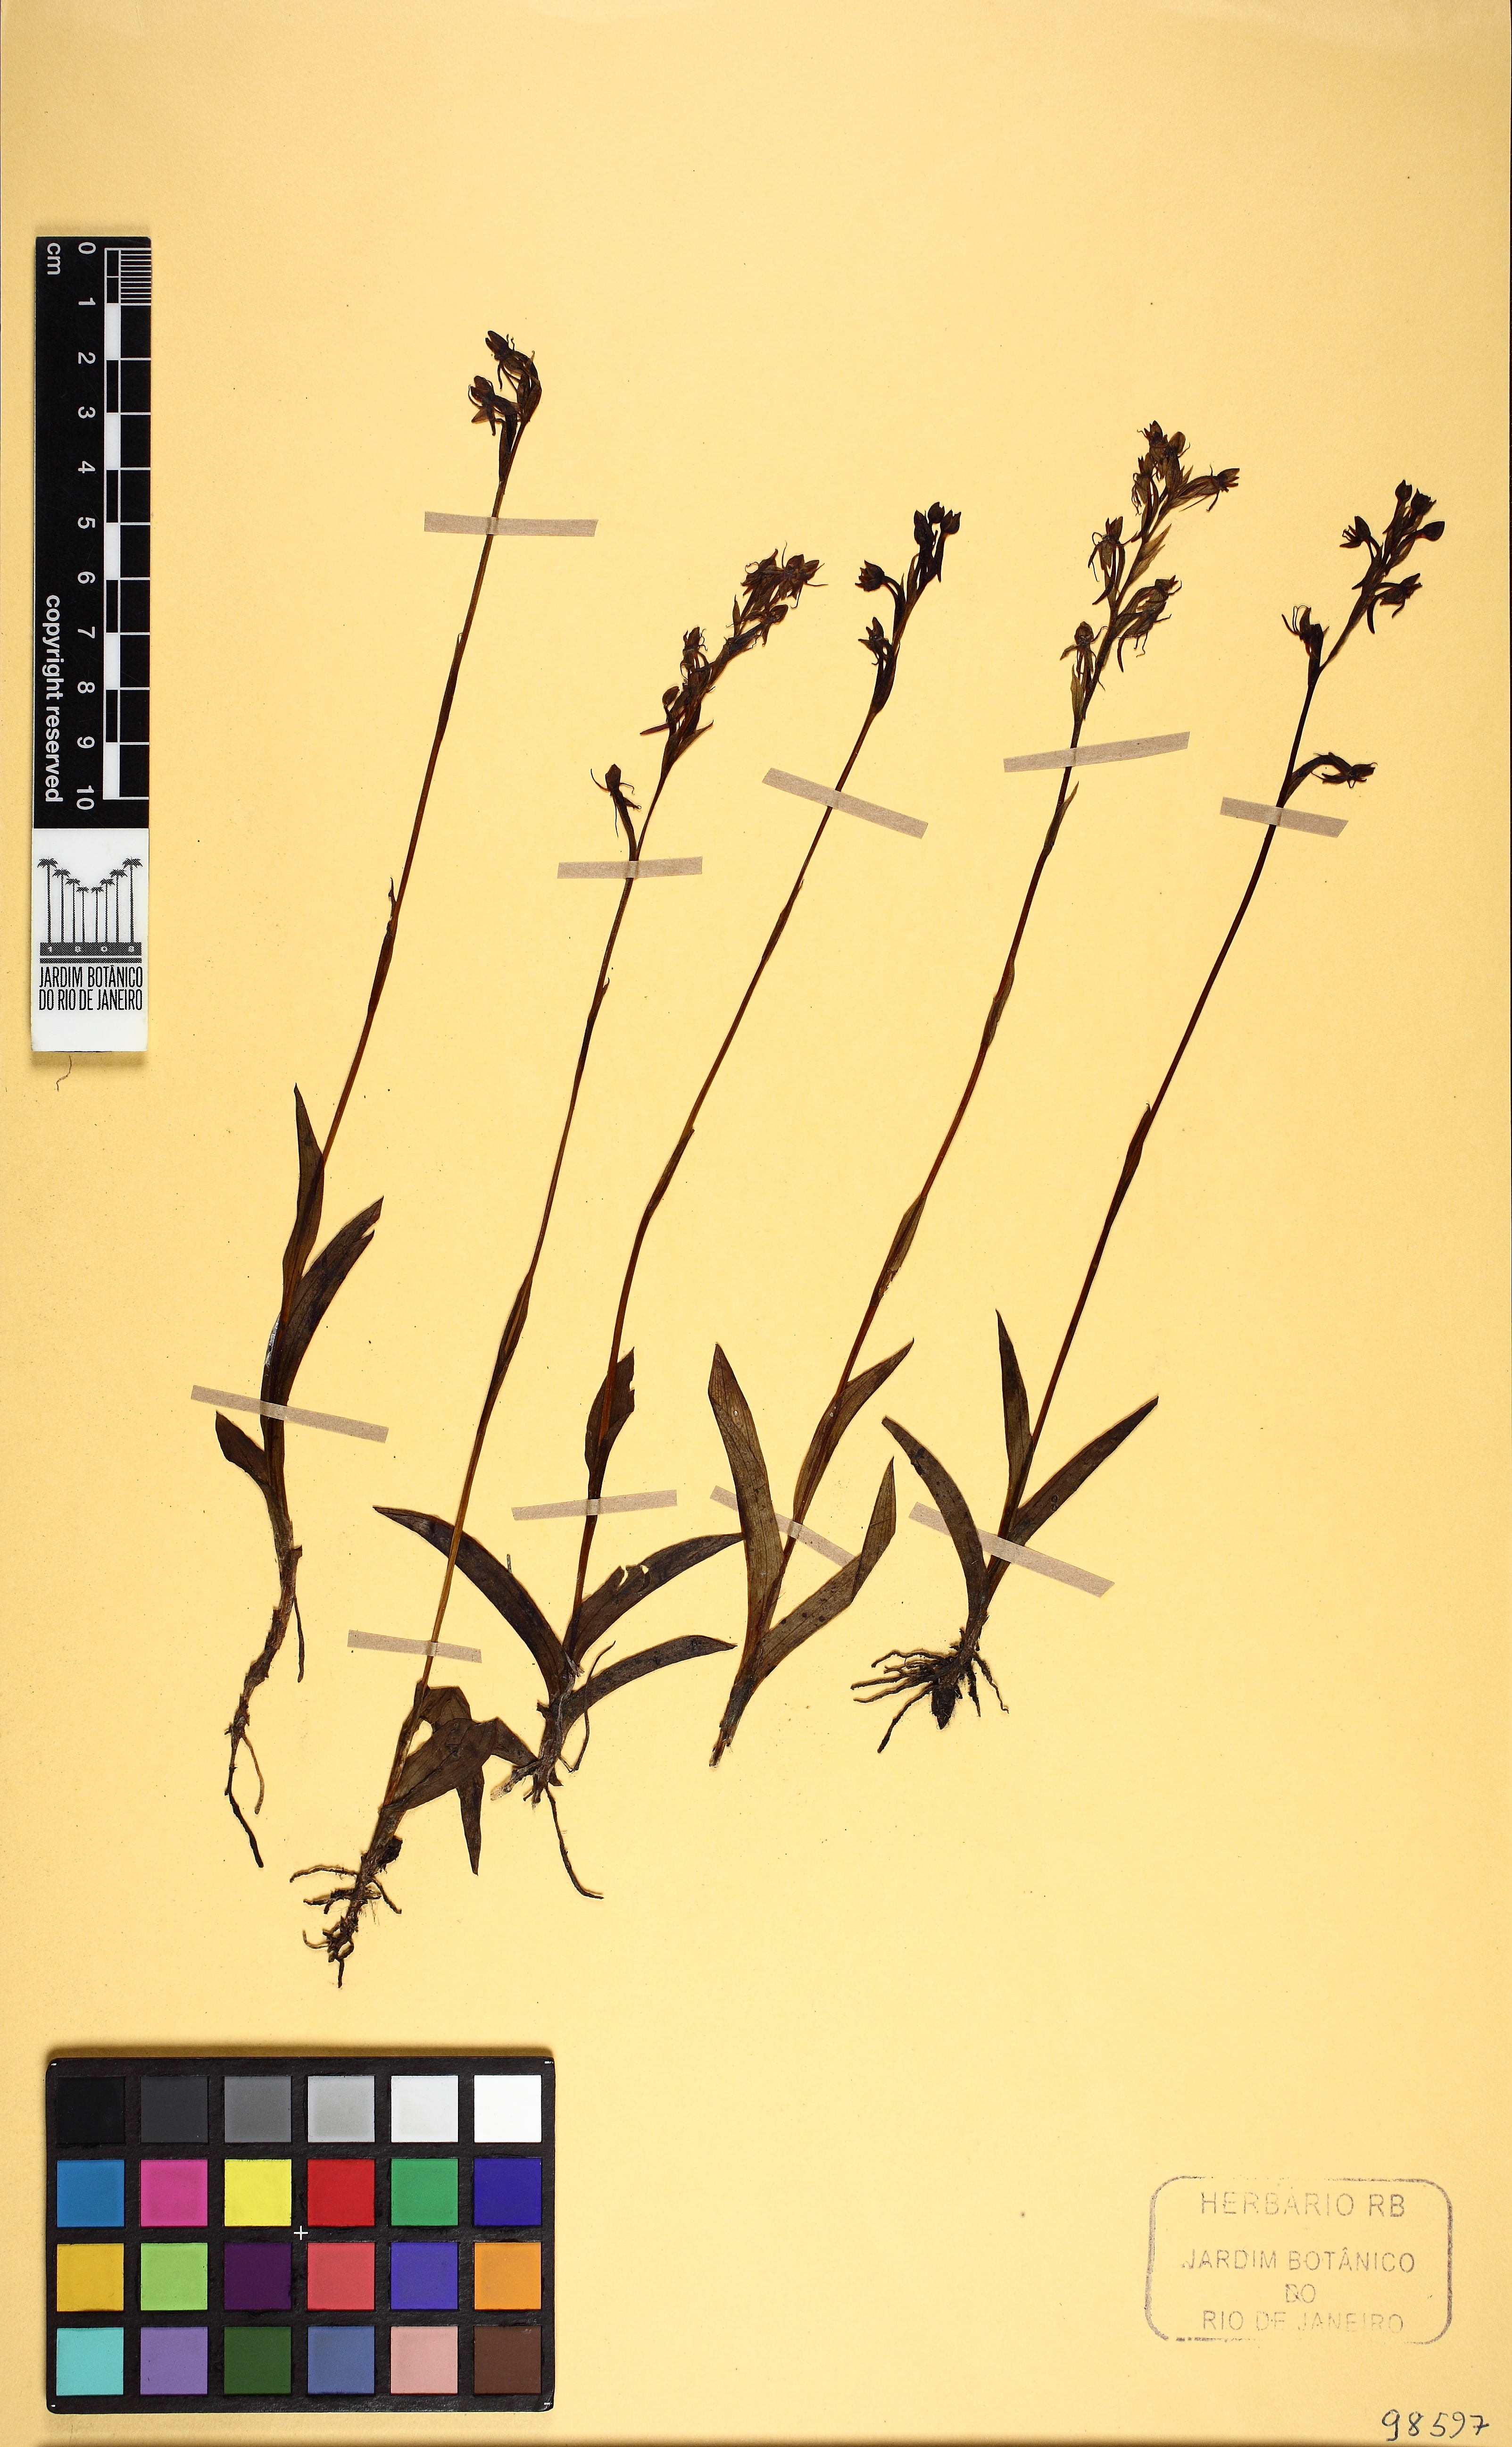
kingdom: Plantae
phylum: Tracheophyta
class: Liliopsida
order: Asparagales
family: Orchidaceae
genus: Habenaria
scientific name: Habenaria armata
